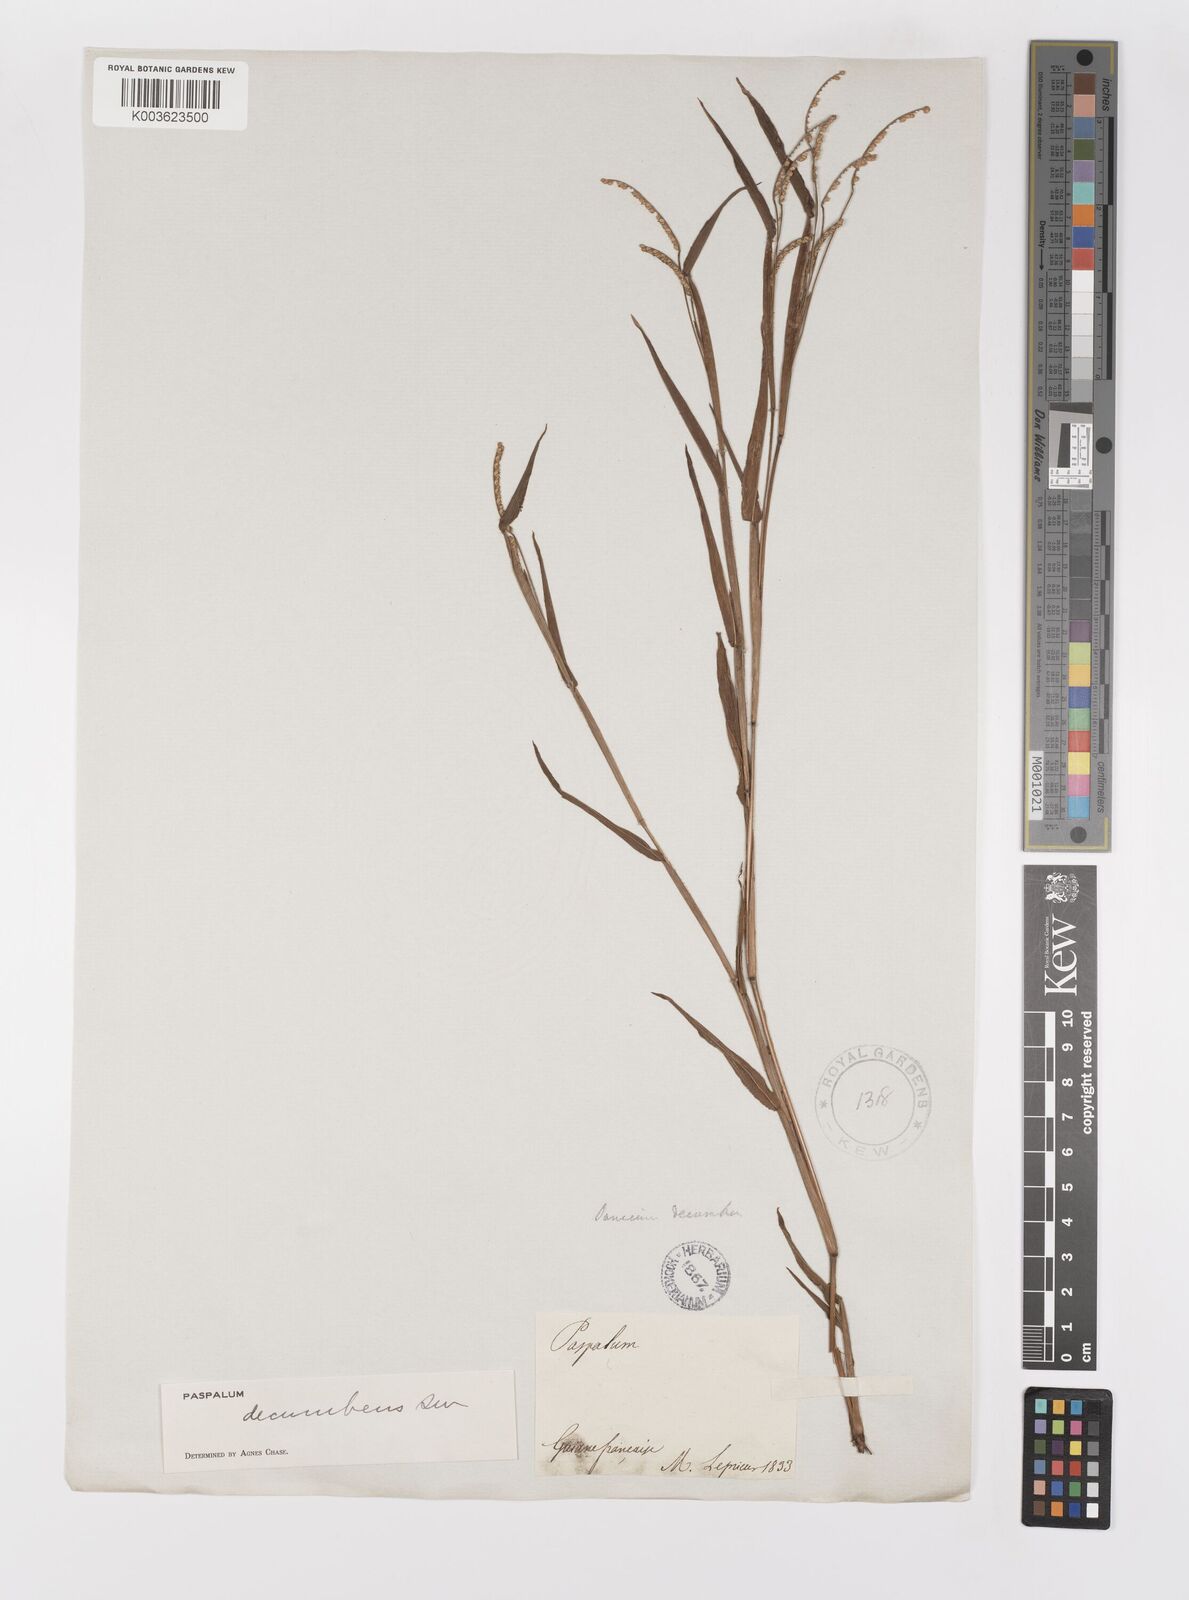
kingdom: Plantae
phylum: Tracheophyta
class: Liliopsida
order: Poales
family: Poaceae
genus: Paspalum
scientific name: Paspalum decumbens
